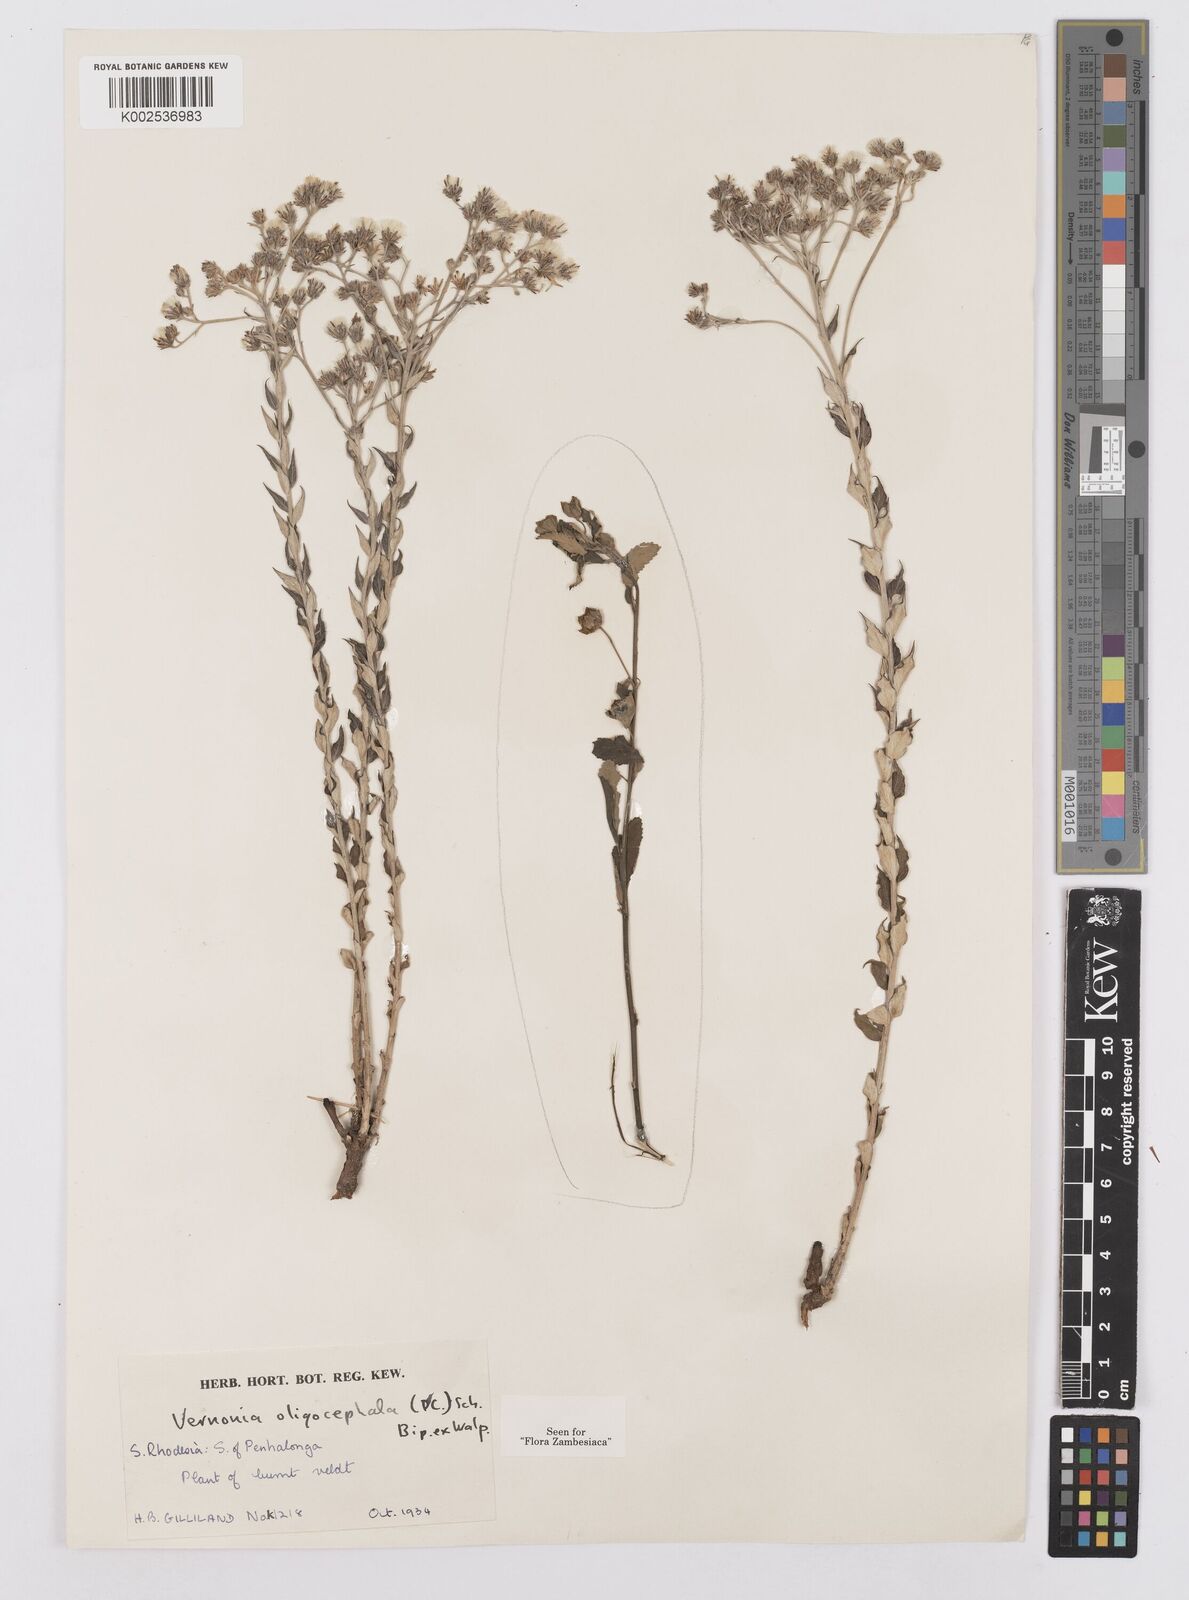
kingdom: Plantae
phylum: Tracheophyta
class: Magnoliopsida
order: Asterales
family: Asteraceae
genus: Hilliardiella
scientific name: Hilliardiella oligocephala
